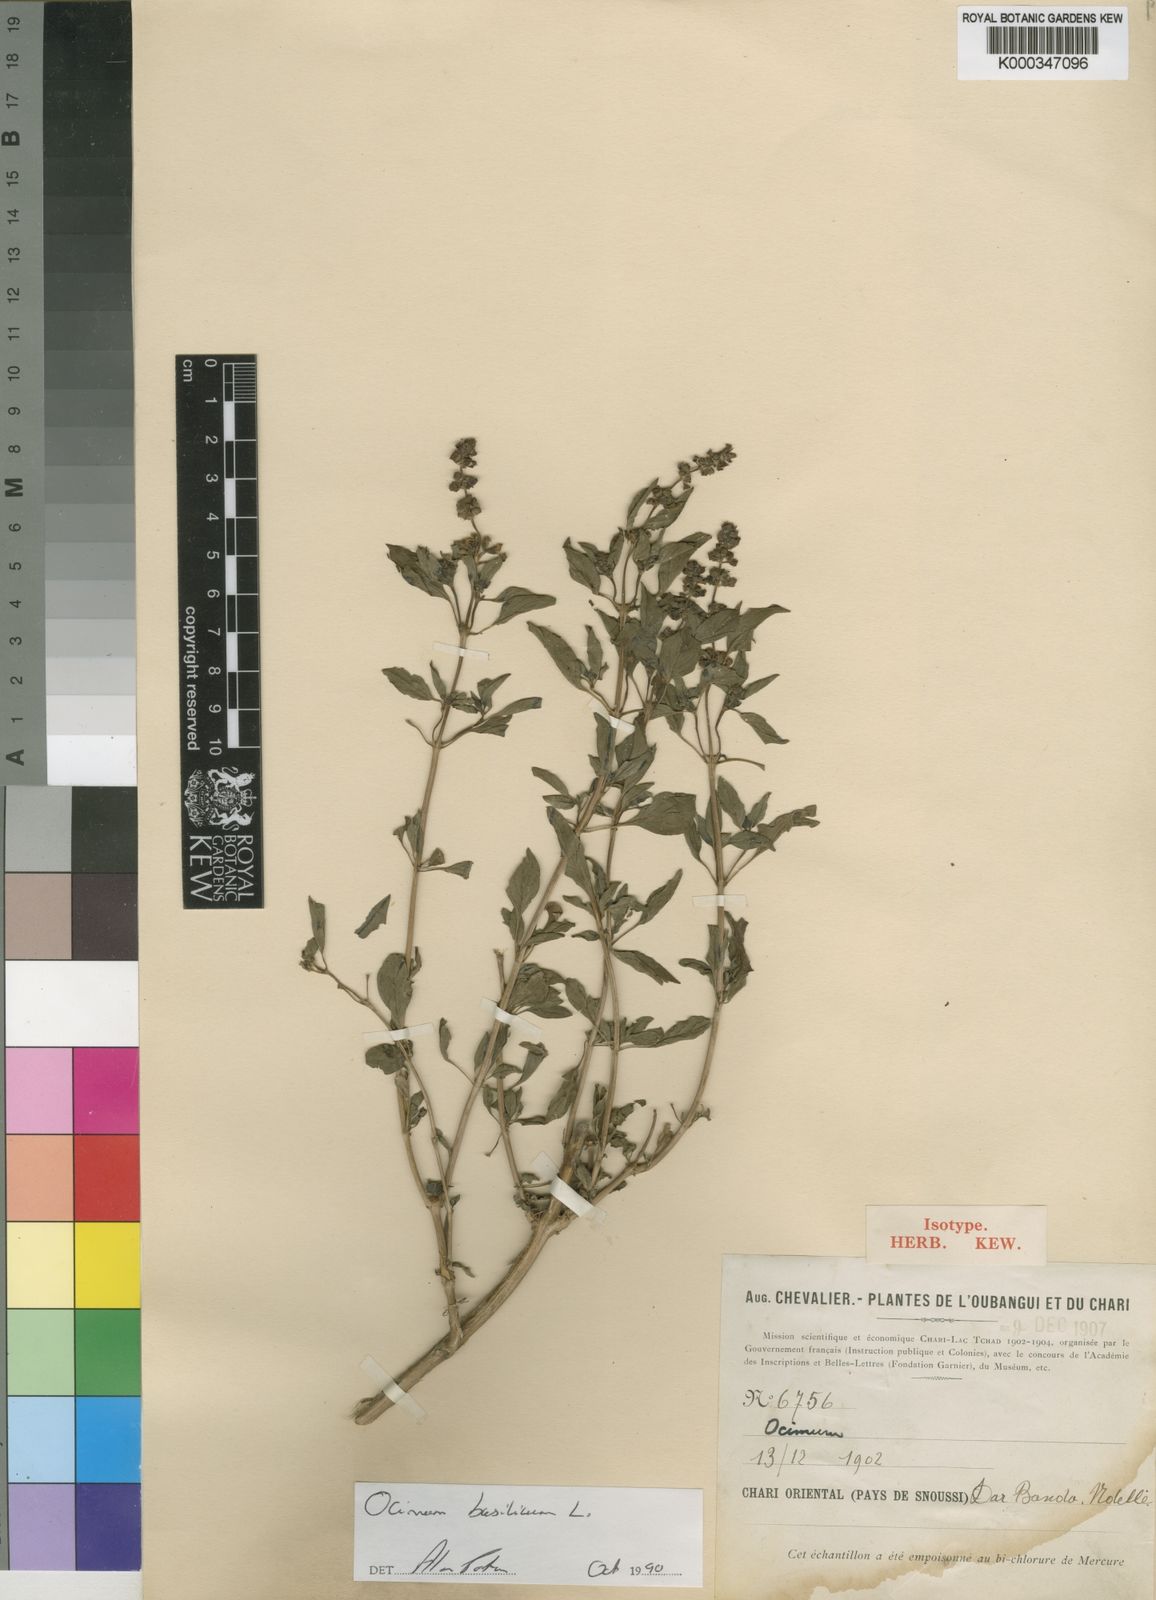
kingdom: Plantae
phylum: Tracheophyta
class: Magnoliopsida
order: Lamiales
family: Lamiaceae
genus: Ocimum
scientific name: Ocimum americanum
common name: American basil
